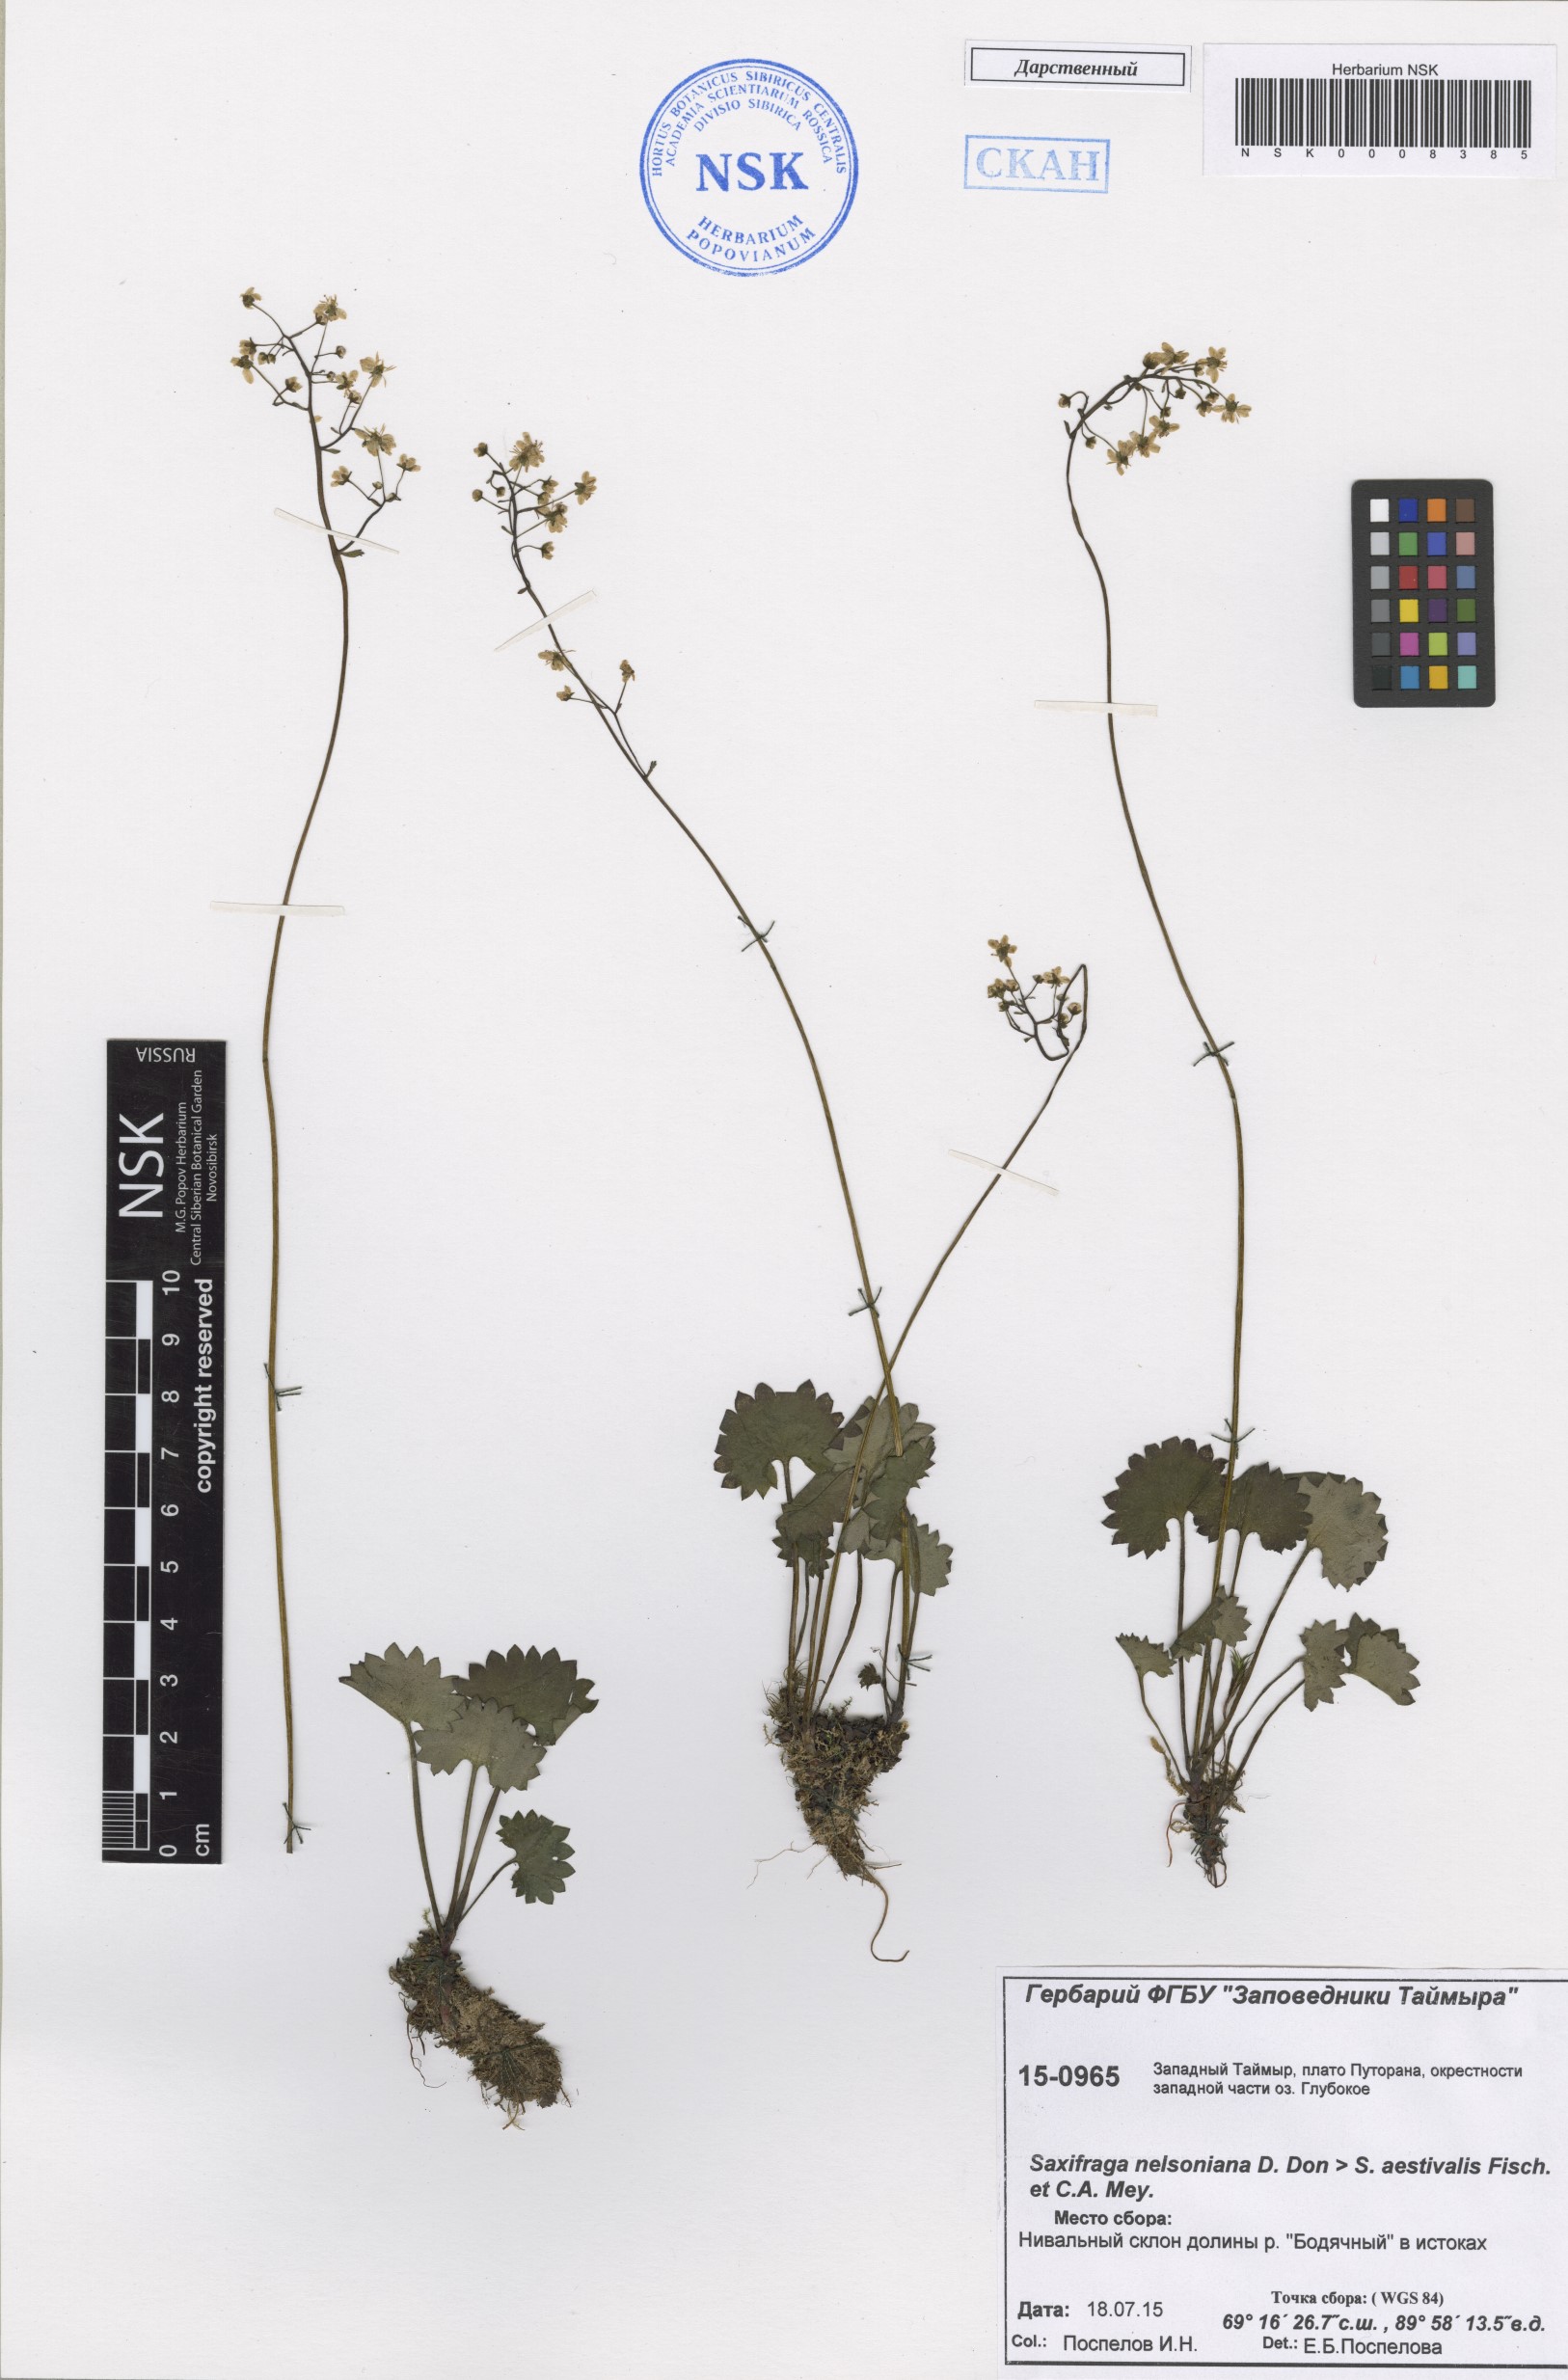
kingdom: Plantae
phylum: Tracheophyta
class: Magnoliopsida
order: Saxifragales
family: Saxifragaceae
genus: Micranthes
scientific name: Micranthes nelsoniana
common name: Nelson's saxifrage
